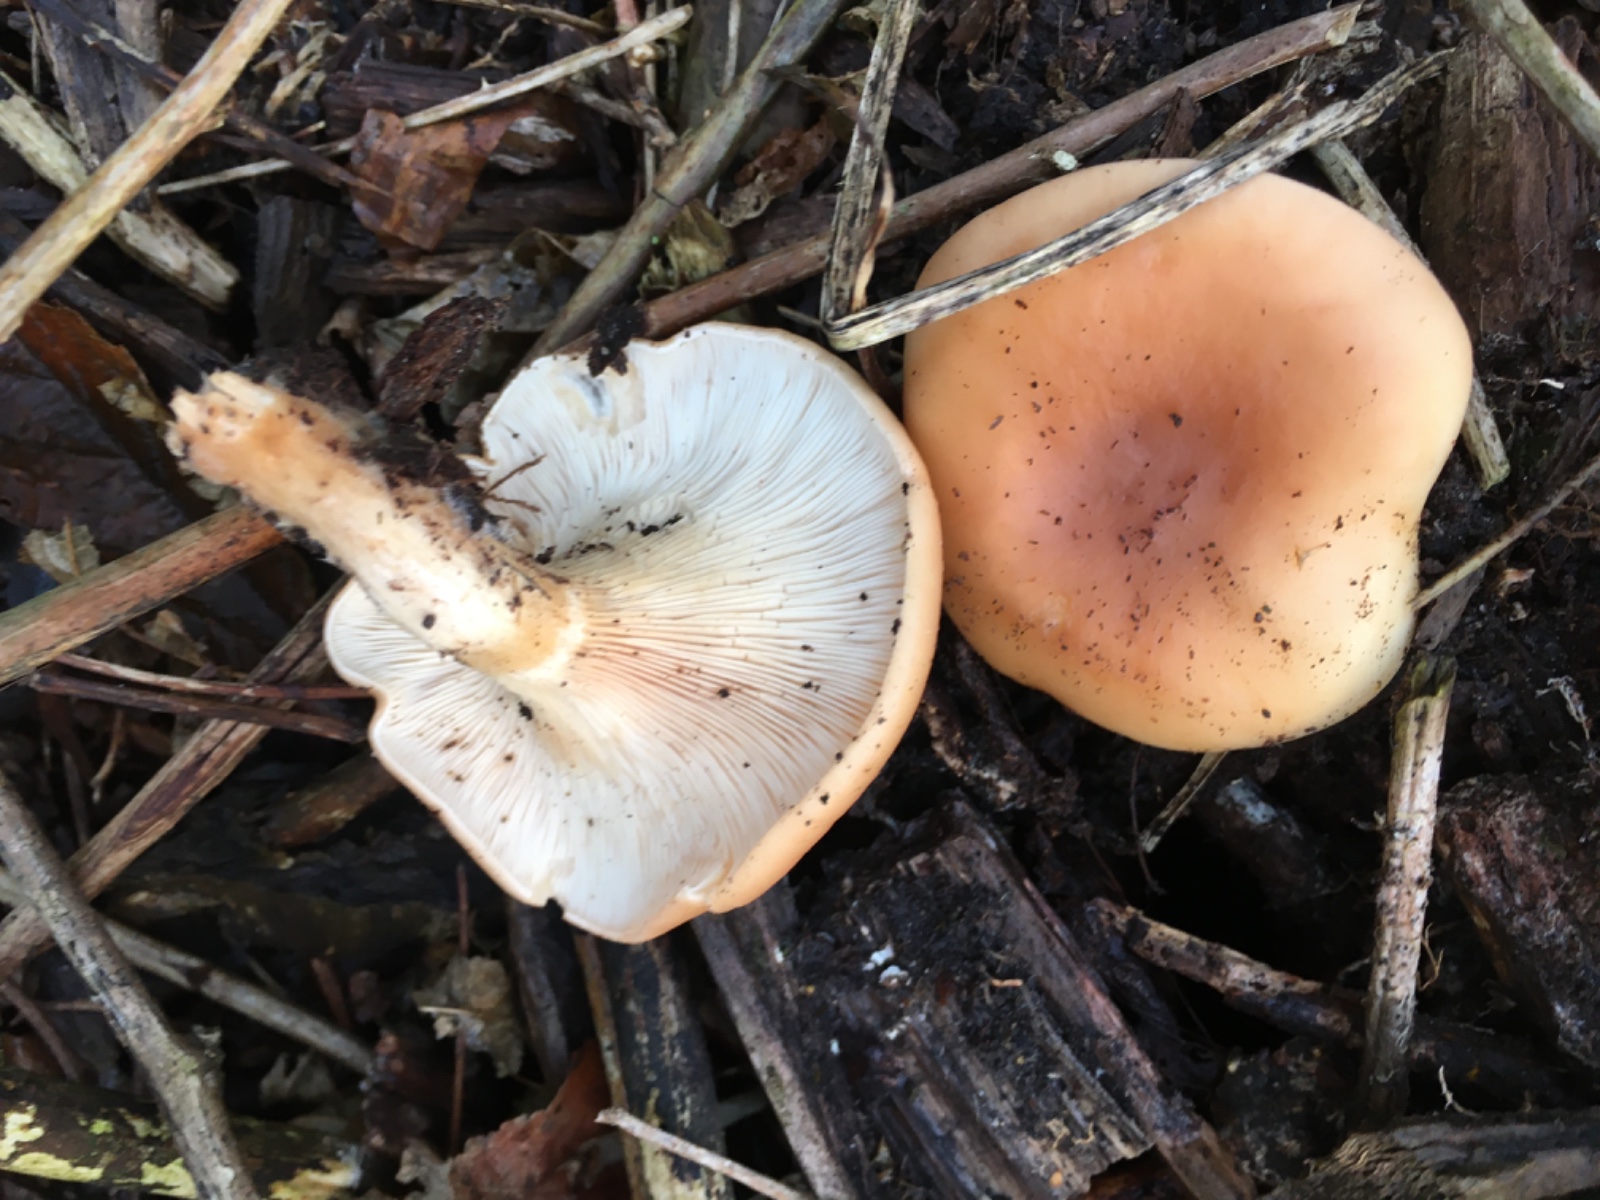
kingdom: Fungi
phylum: Basidiomycota
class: Agaricomycetes
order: Agaricales
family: Tricholomataceae
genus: Paralepista
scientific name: Paralepista flaccida
